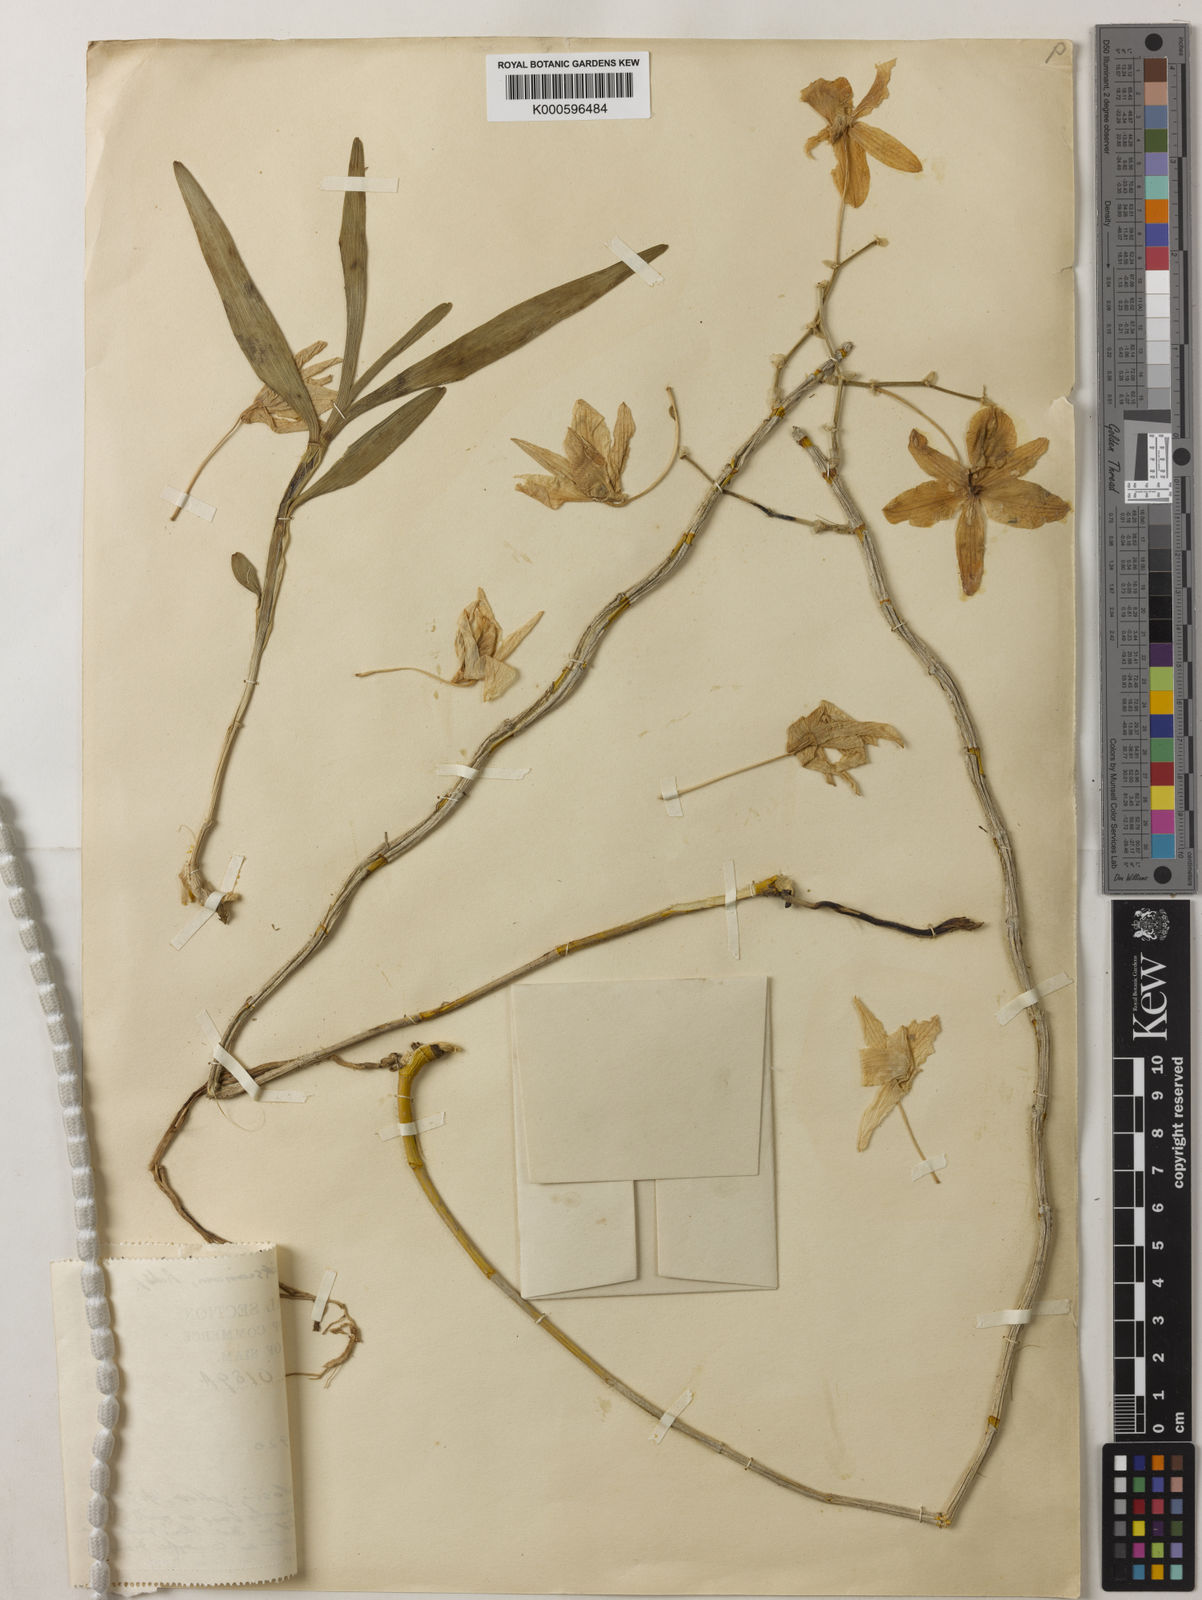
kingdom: Plantae
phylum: Tracheophyta
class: Liliopsida
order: Asparagales
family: Orchidaceae
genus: Dendrobium
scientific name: Dendrobium friedericksianum
